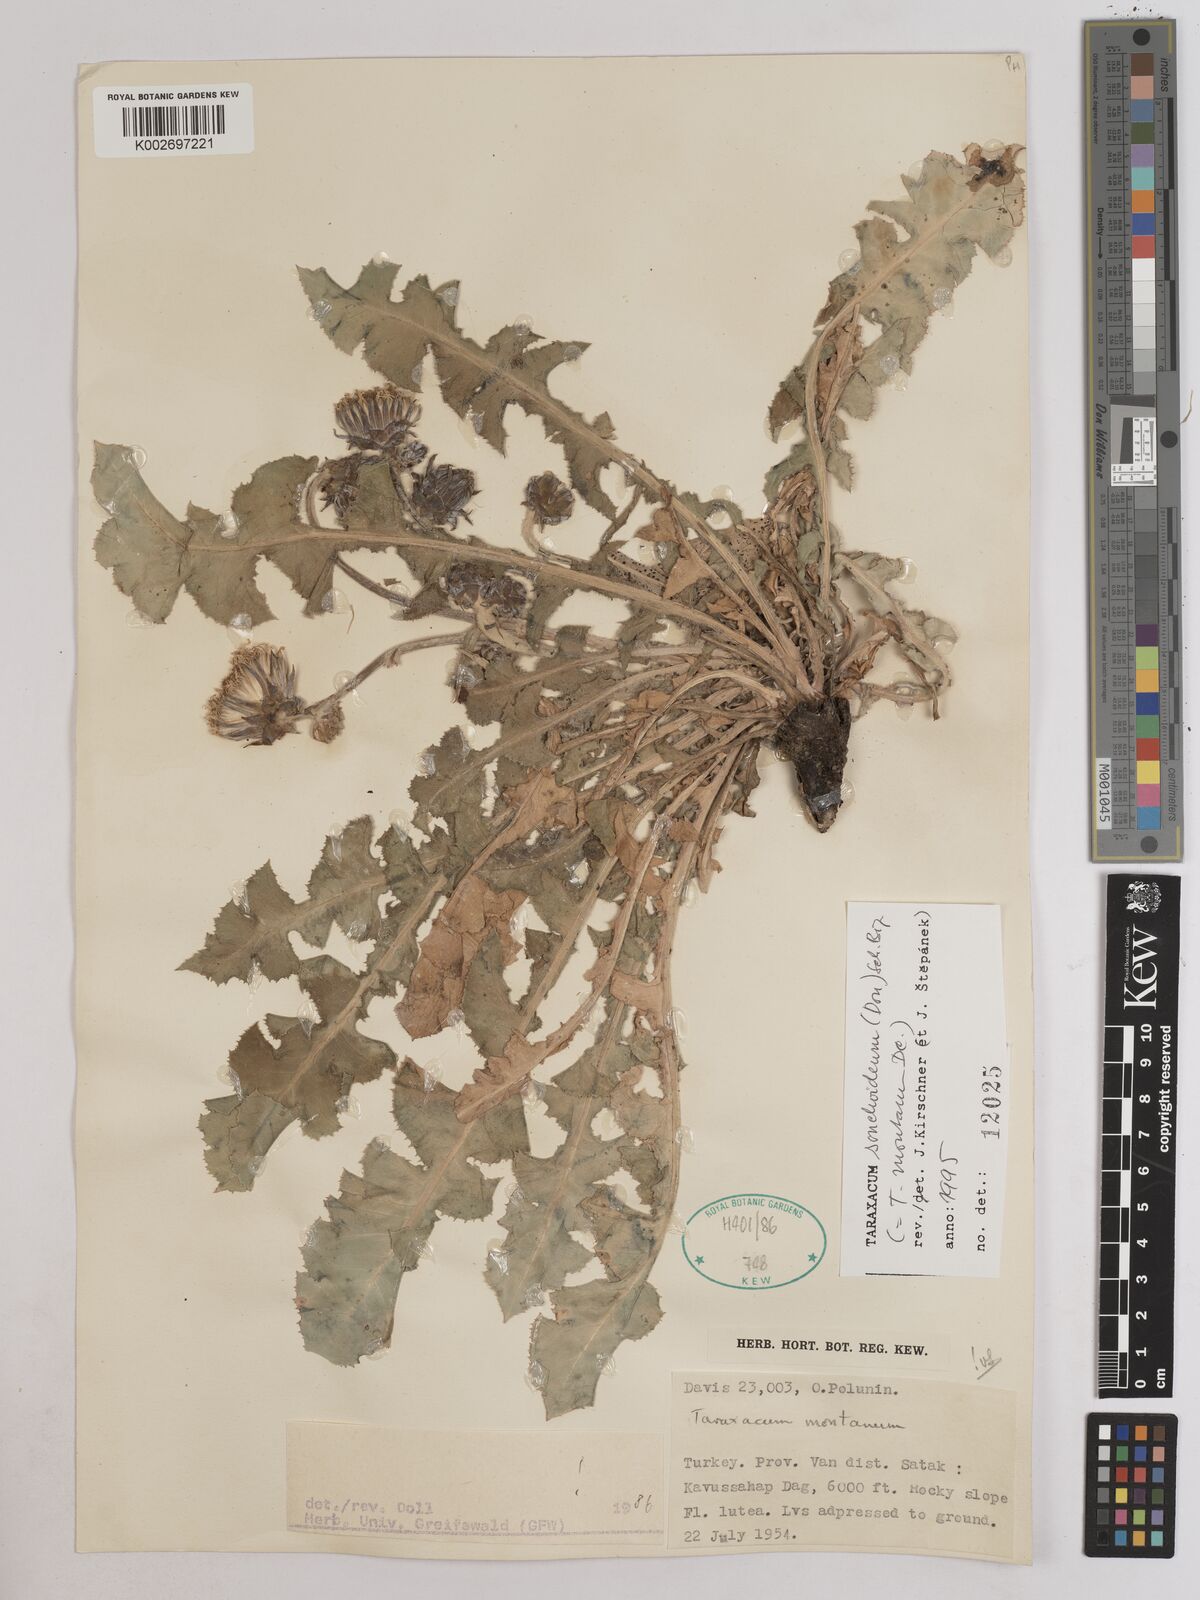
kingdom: Plantae
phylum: Tracheophyta
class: Magnoliopsida
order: Asterales
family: Asteraceae
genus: Taraxacum
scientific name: Taraxacum sonchoides
